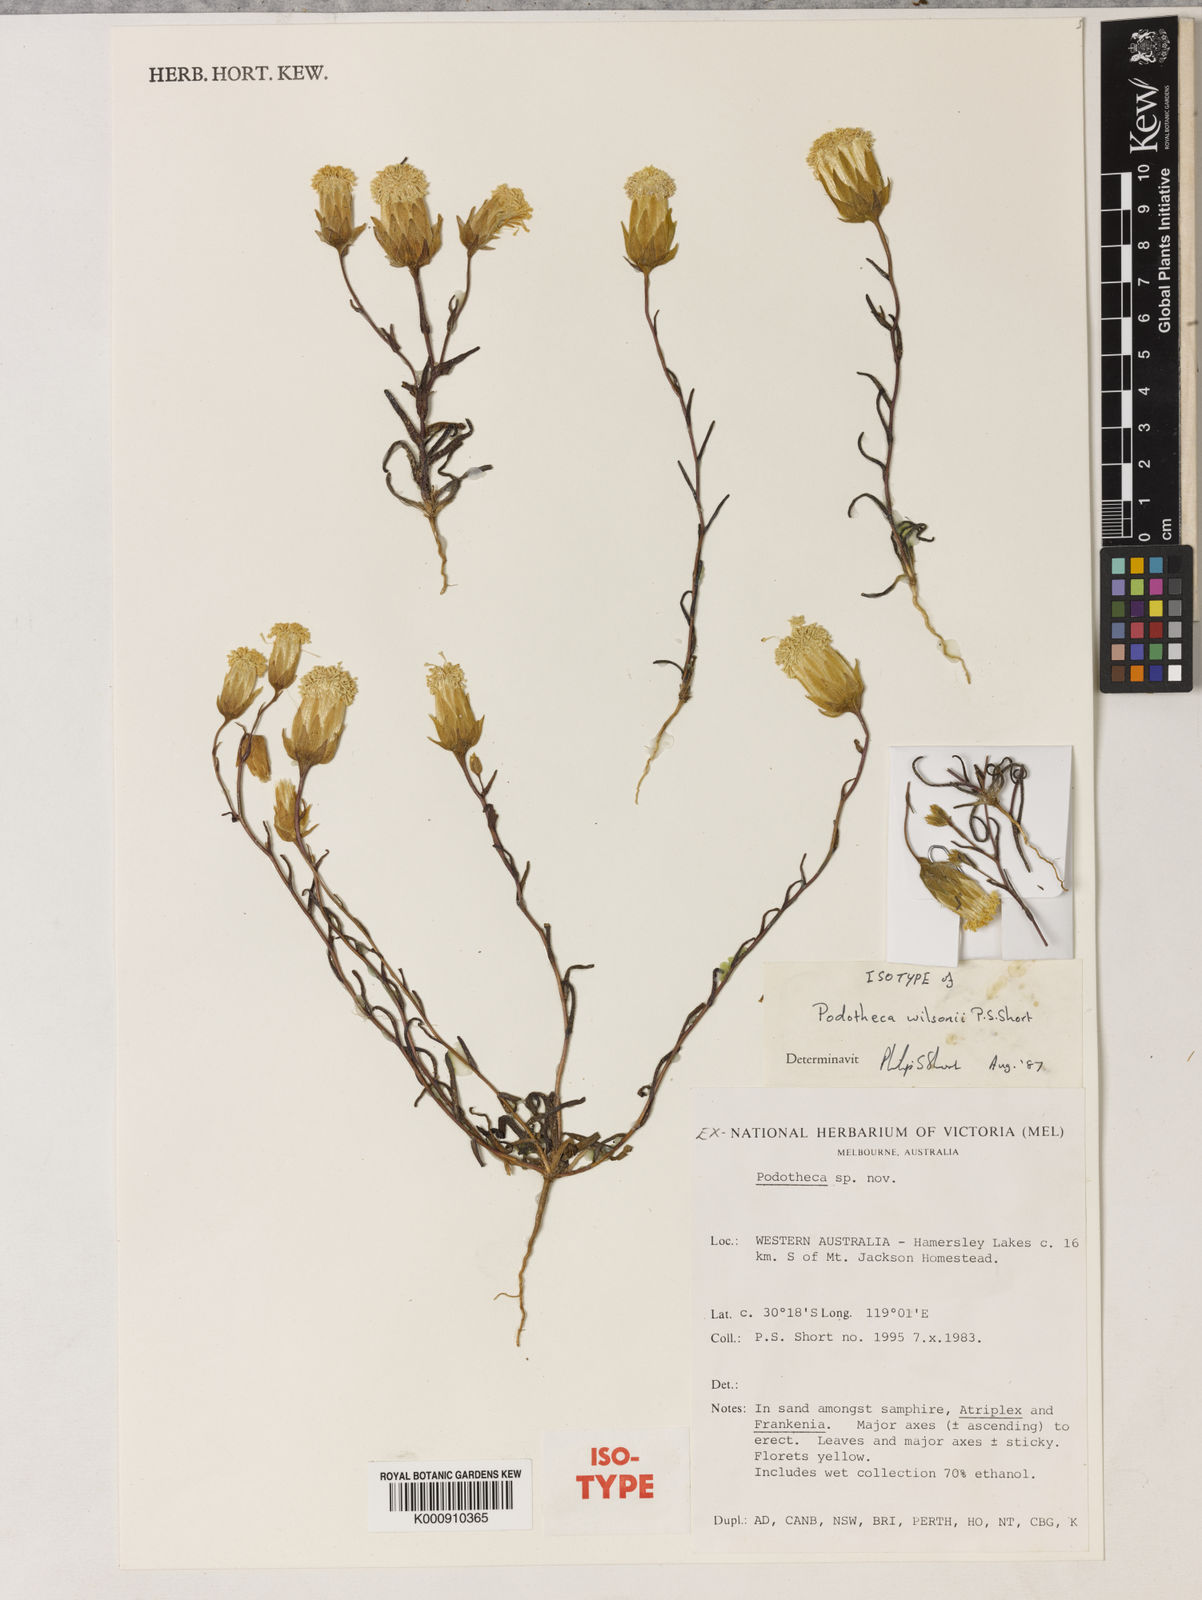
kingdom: Plantae
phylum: Tracheophyta
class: Magnoliopsida
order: Asterales
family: Asteraceae
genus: Podotheca
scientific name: Podotheca wilsonii
